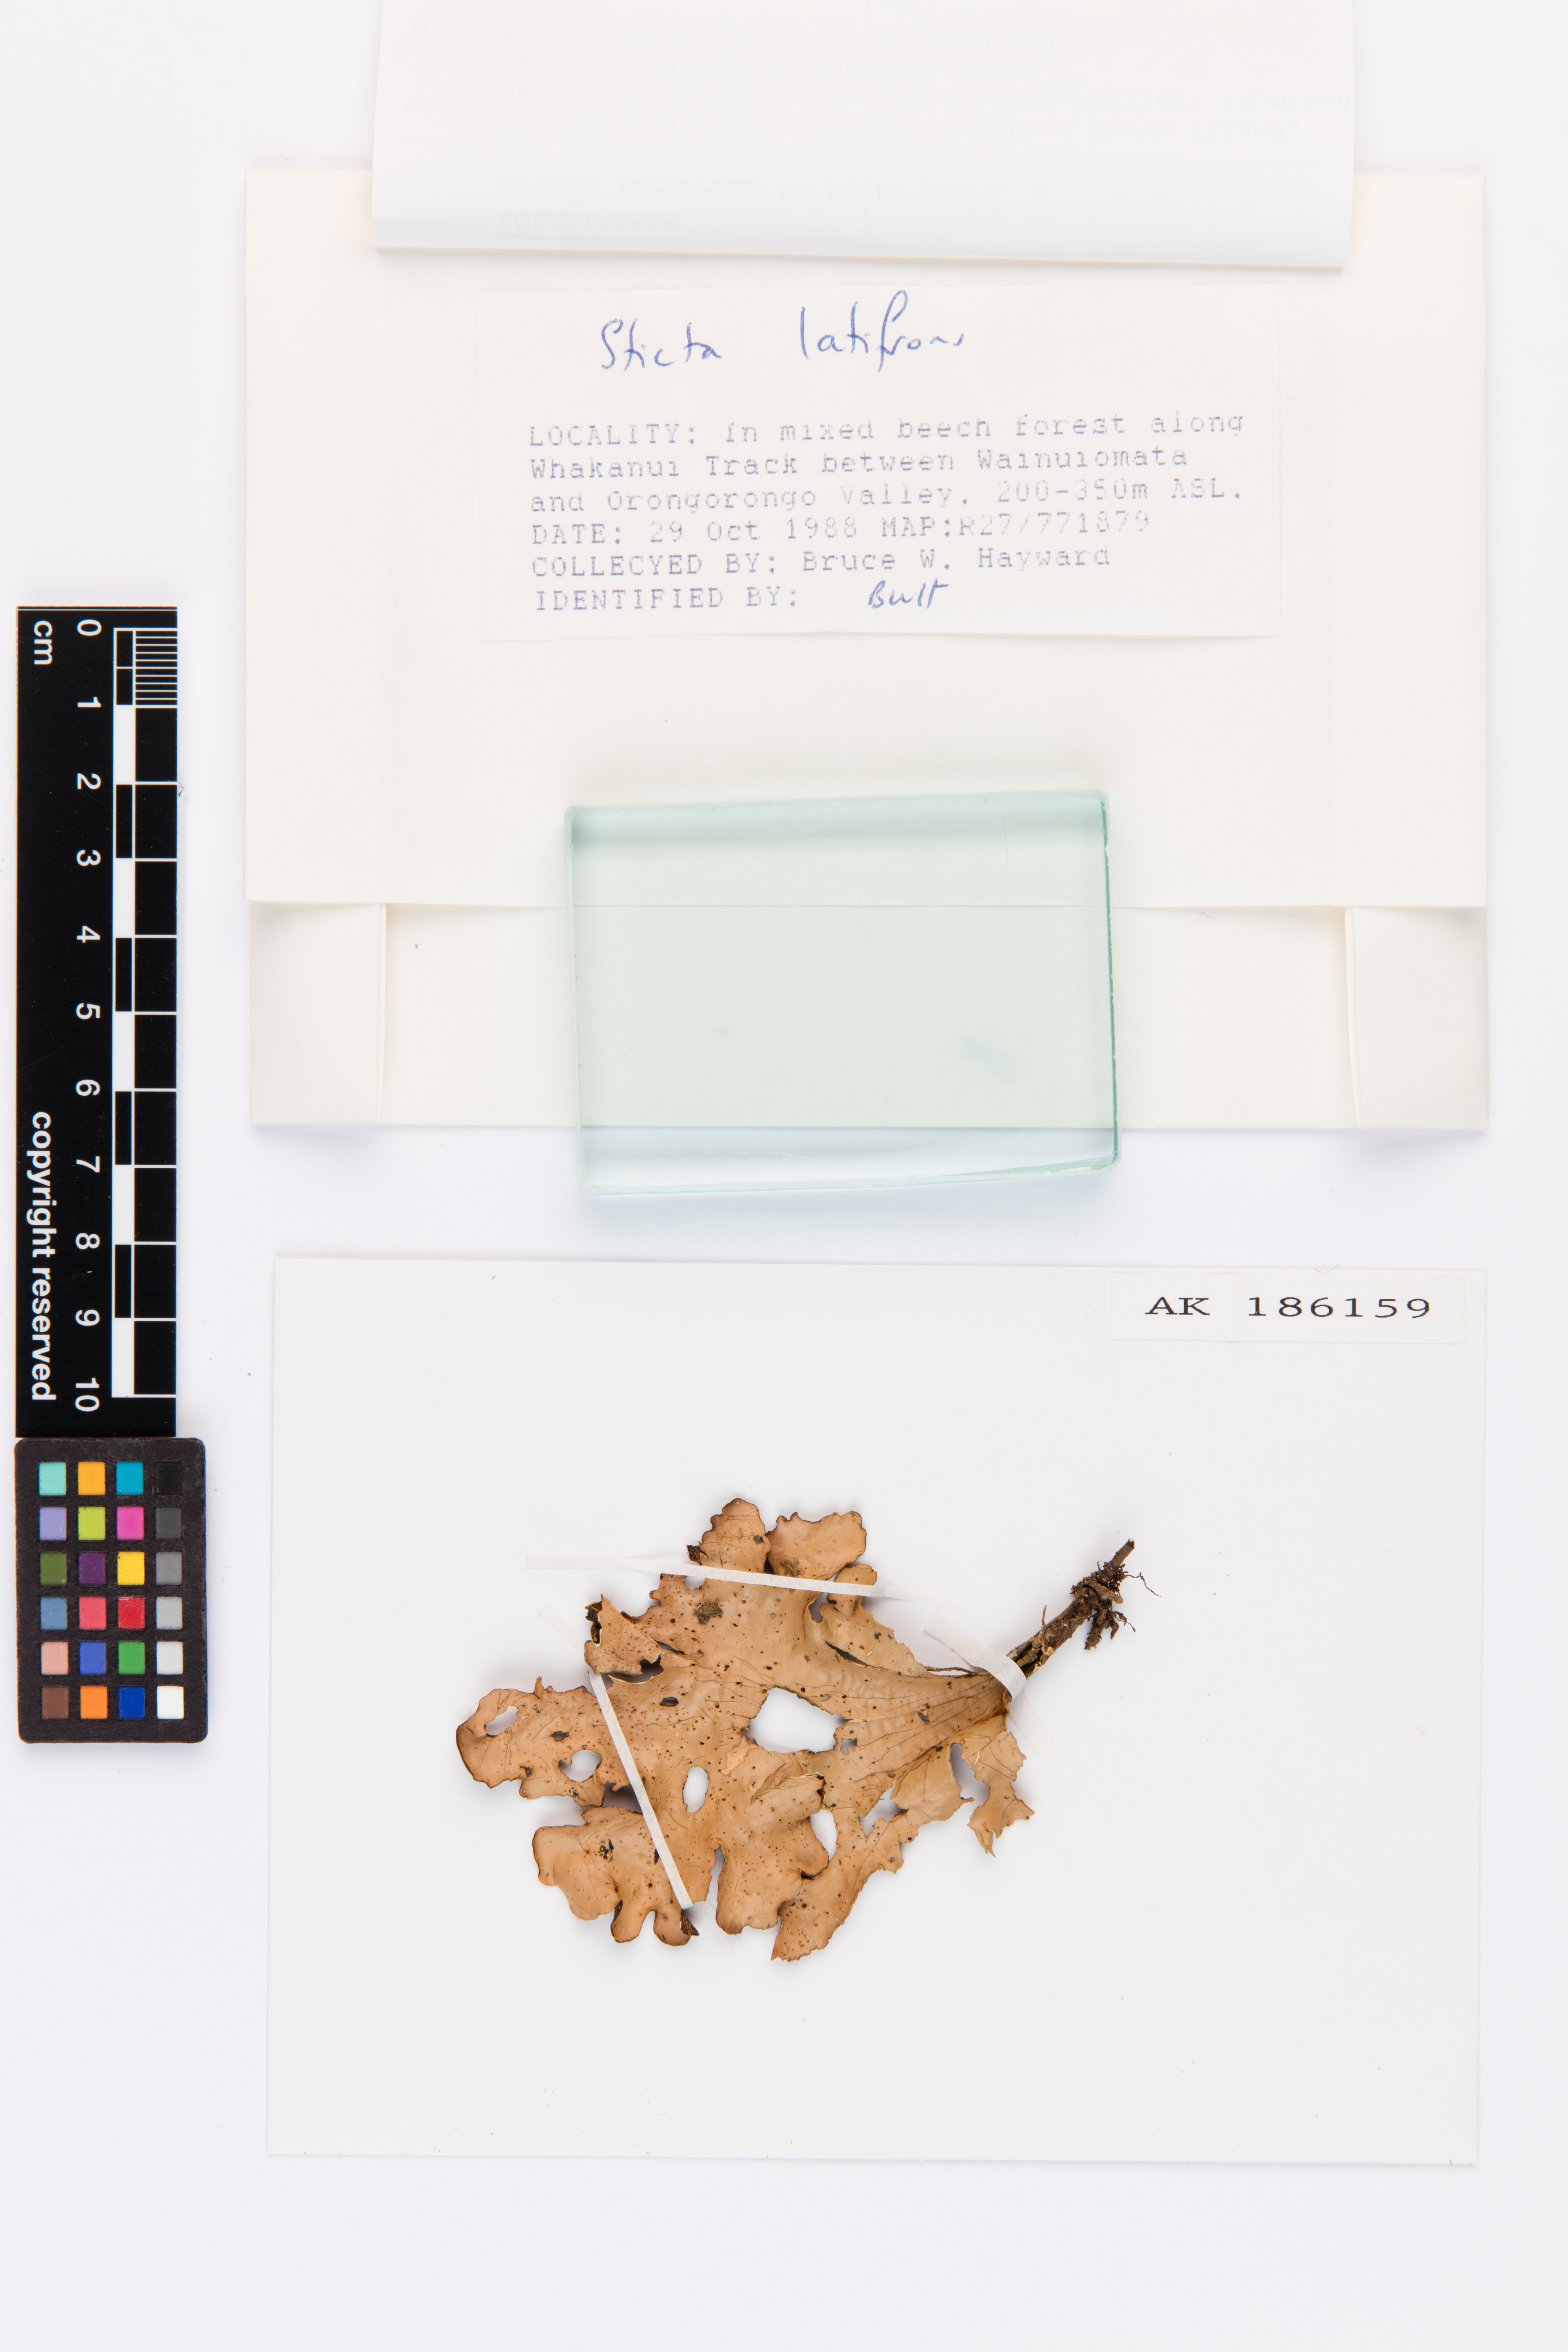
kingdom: Fungi
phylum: Ascomycota
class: Lecanoromycetes
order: Peltigerales
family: Lobariaceae
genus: Sticta
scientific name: Sticta latifrons
